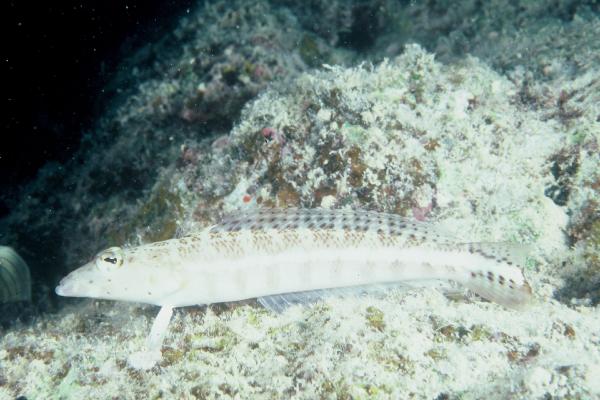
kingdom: Animalia
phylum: Chordata
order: Perciformes
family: Pinguipedidae
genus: Parapercis
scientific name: Parapercis xanthozona
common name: Yellowbar sandperch
